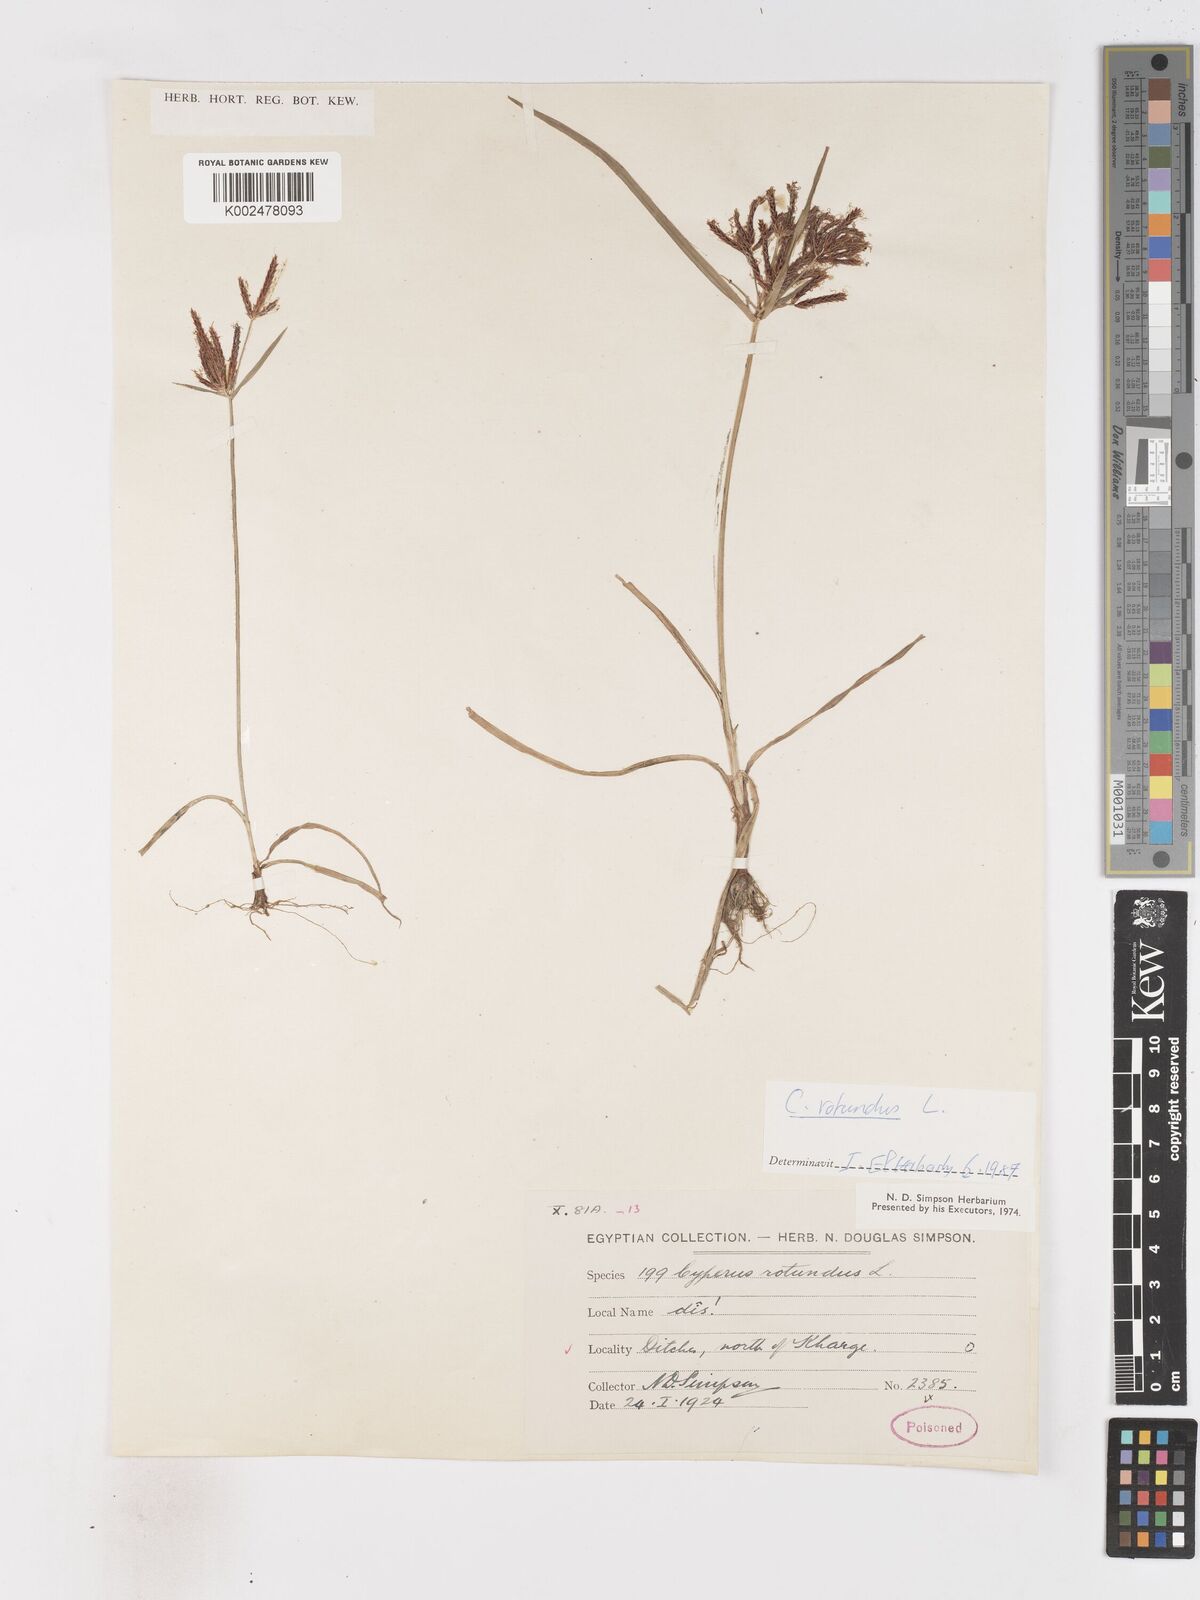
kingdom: Plantae
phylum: Tracheophyta
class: Liliopsida
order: Poales
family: Cyperaceae
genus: Cyperus
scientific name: Cyperus rotundus
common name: Nutgrass
